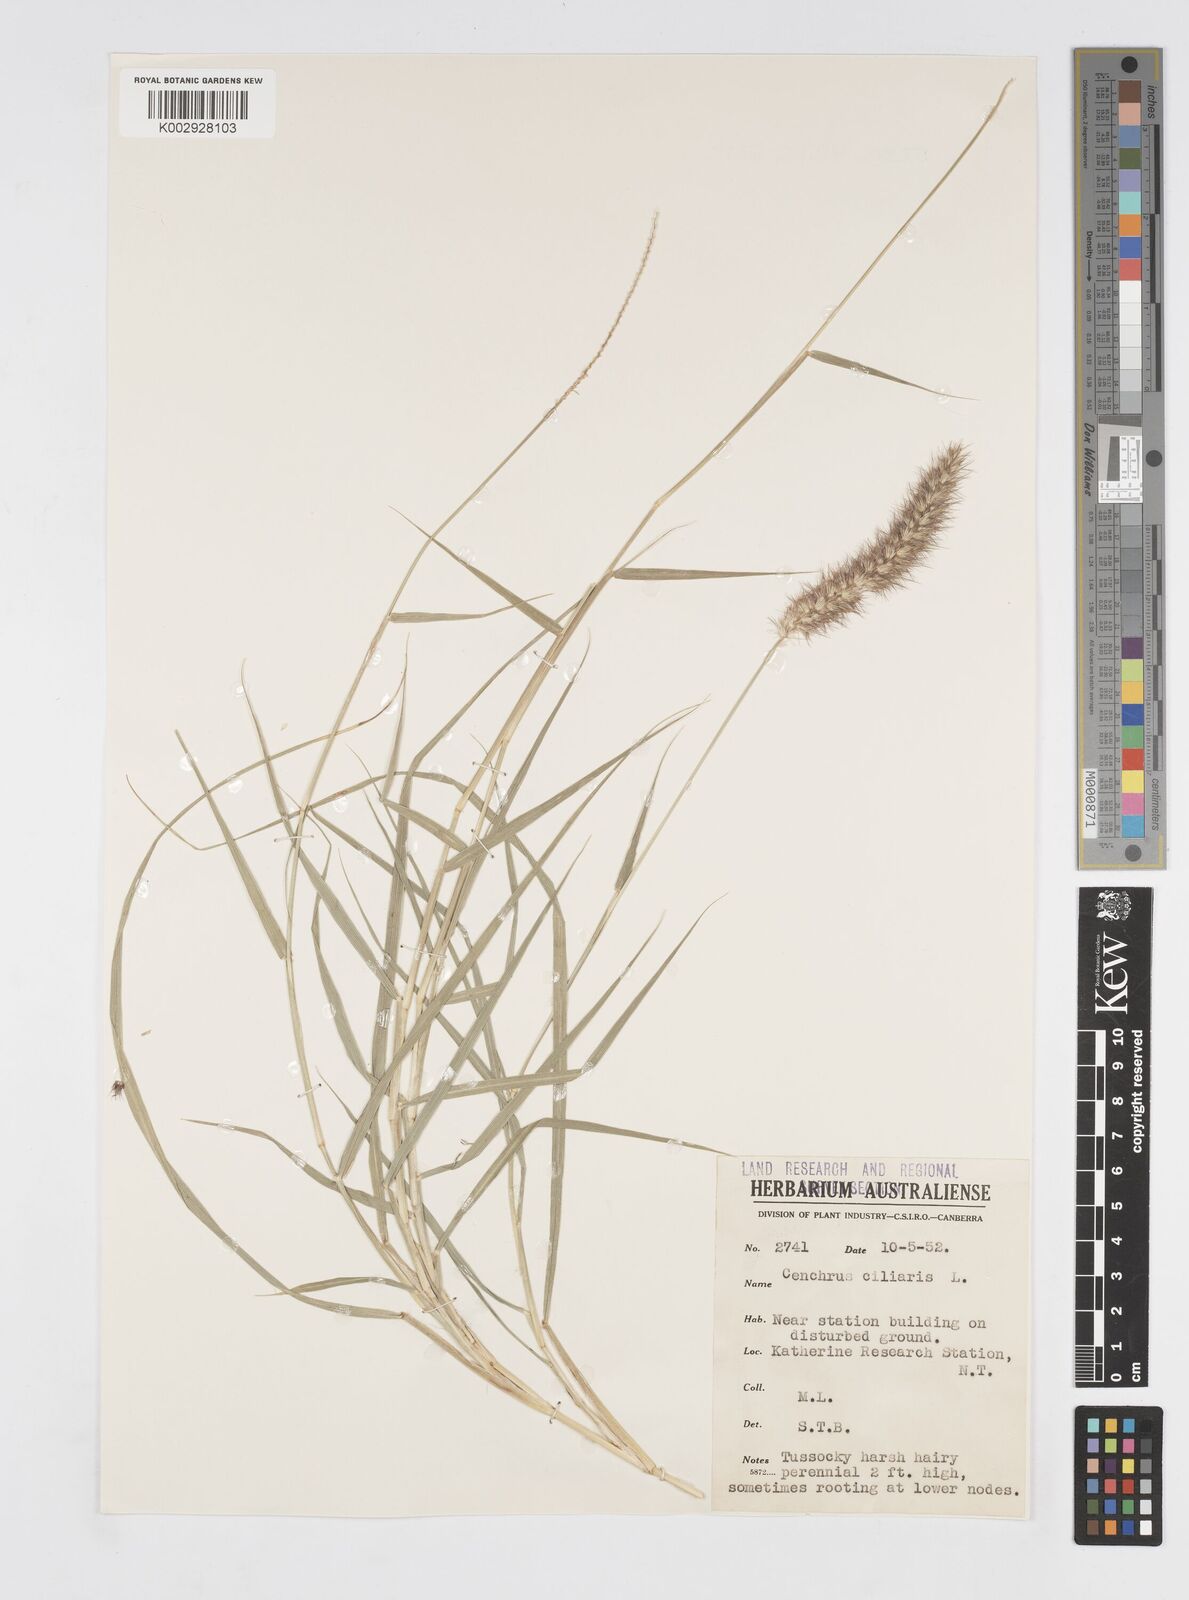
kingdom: Plantae
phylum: Tracheophyta
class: Liliopsida
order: Poales
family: Poaceae
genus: Cenchrus
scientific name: Cenchrus ciliaris
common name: Buffelgrass
